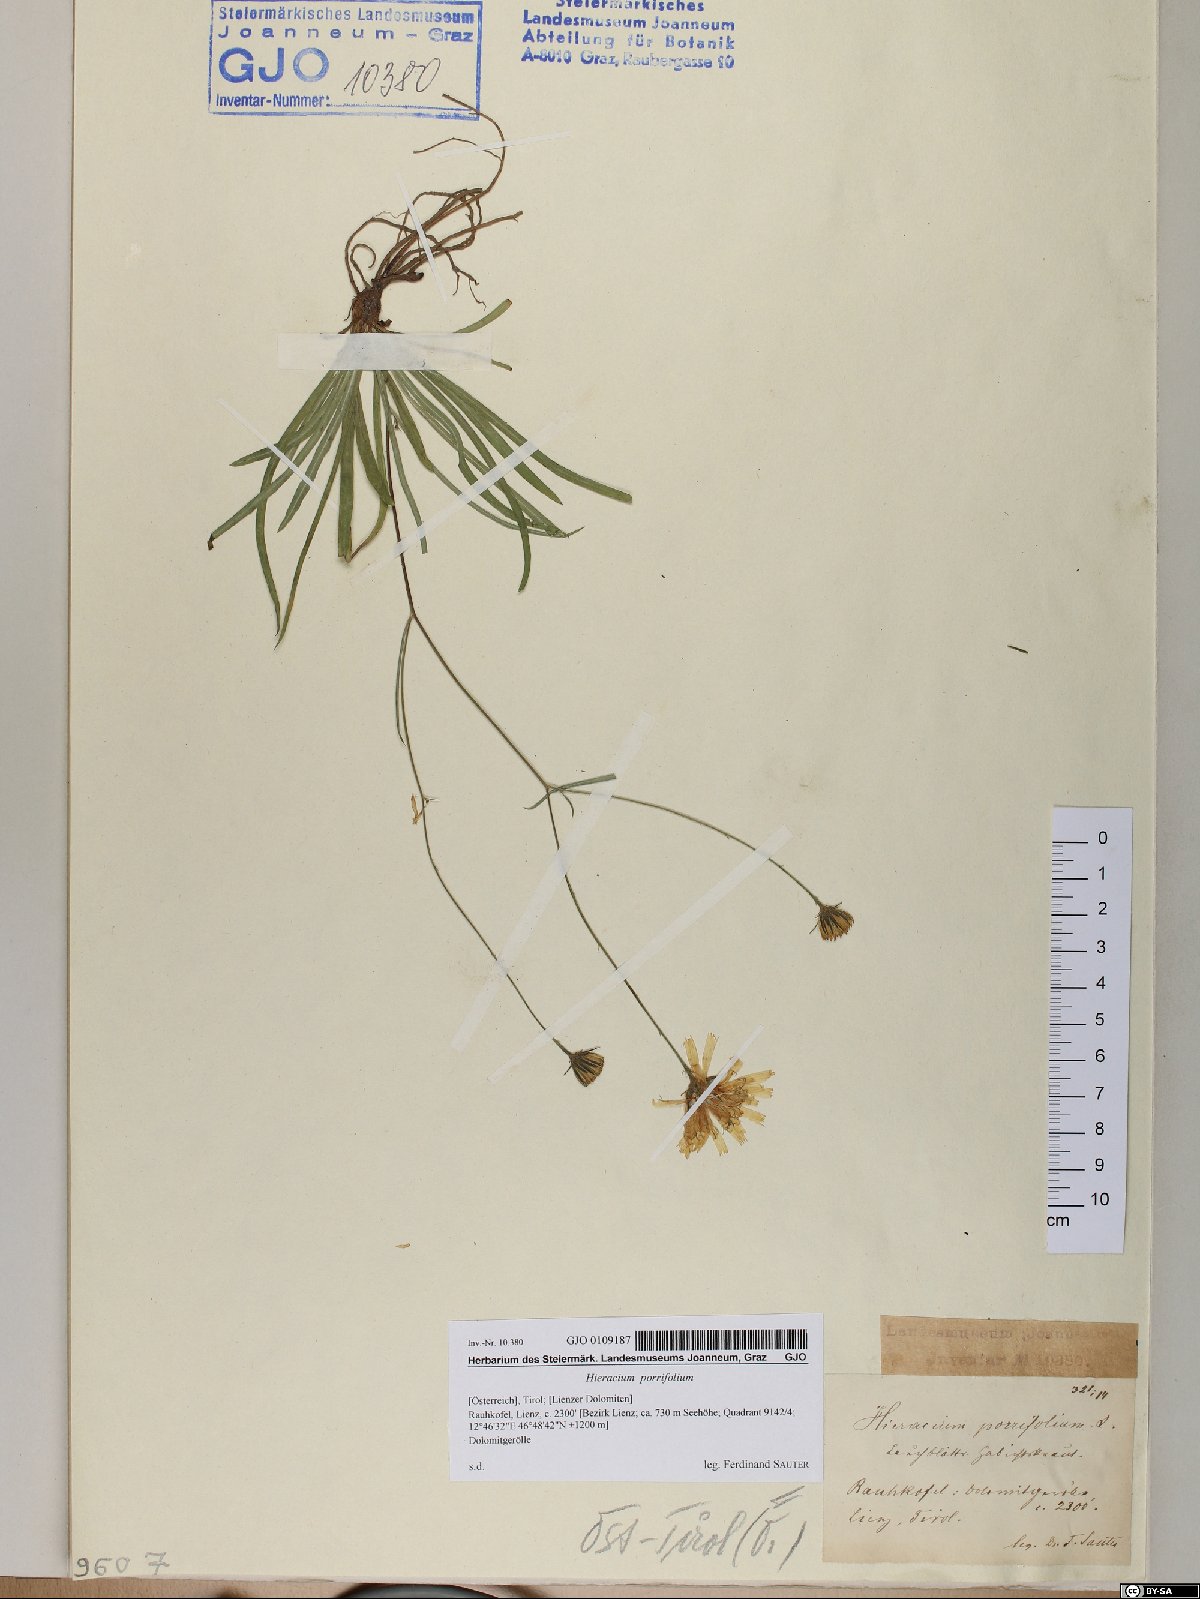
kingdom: Plantae
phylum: Tracheophyta
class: Magnoliopsida
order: Asterales
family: Asteraceae
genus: Hieracium
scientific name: Hieracium porrifolium
